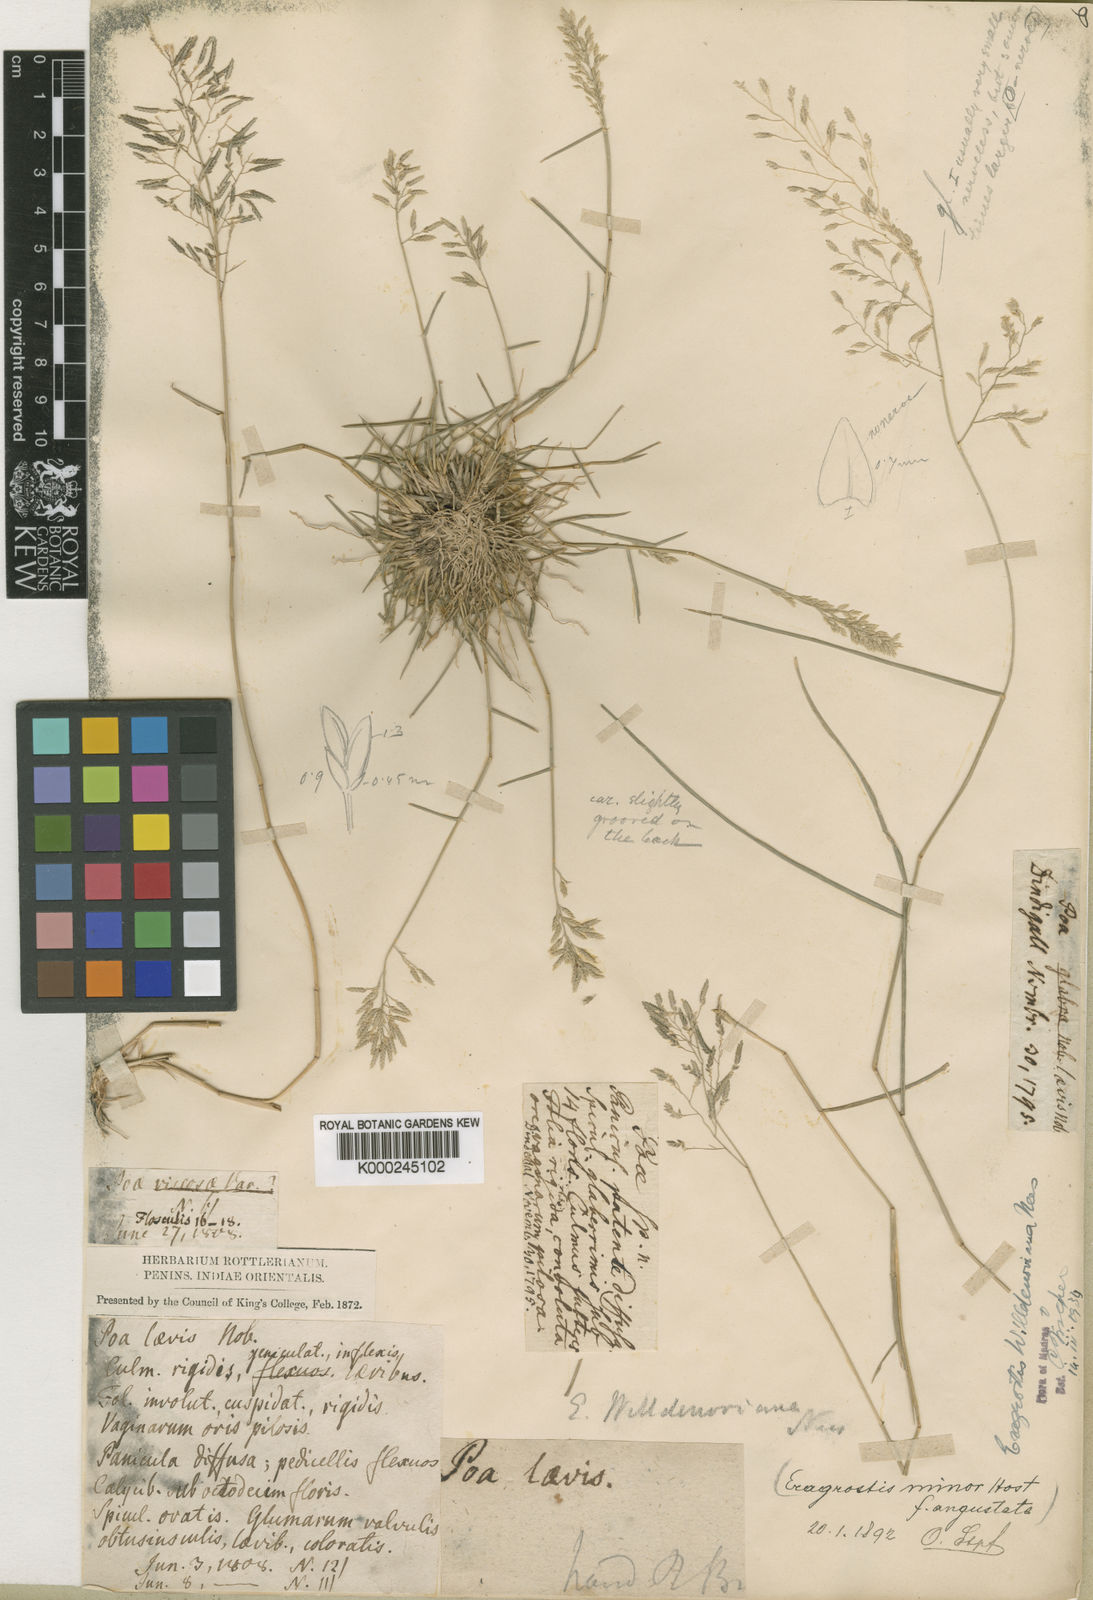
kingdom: Plantae
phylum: Tracheophyta
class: Liliopsida
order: Poales
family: Poaceae
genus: Eragrostis
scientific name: Eragrostis maderaspatana
